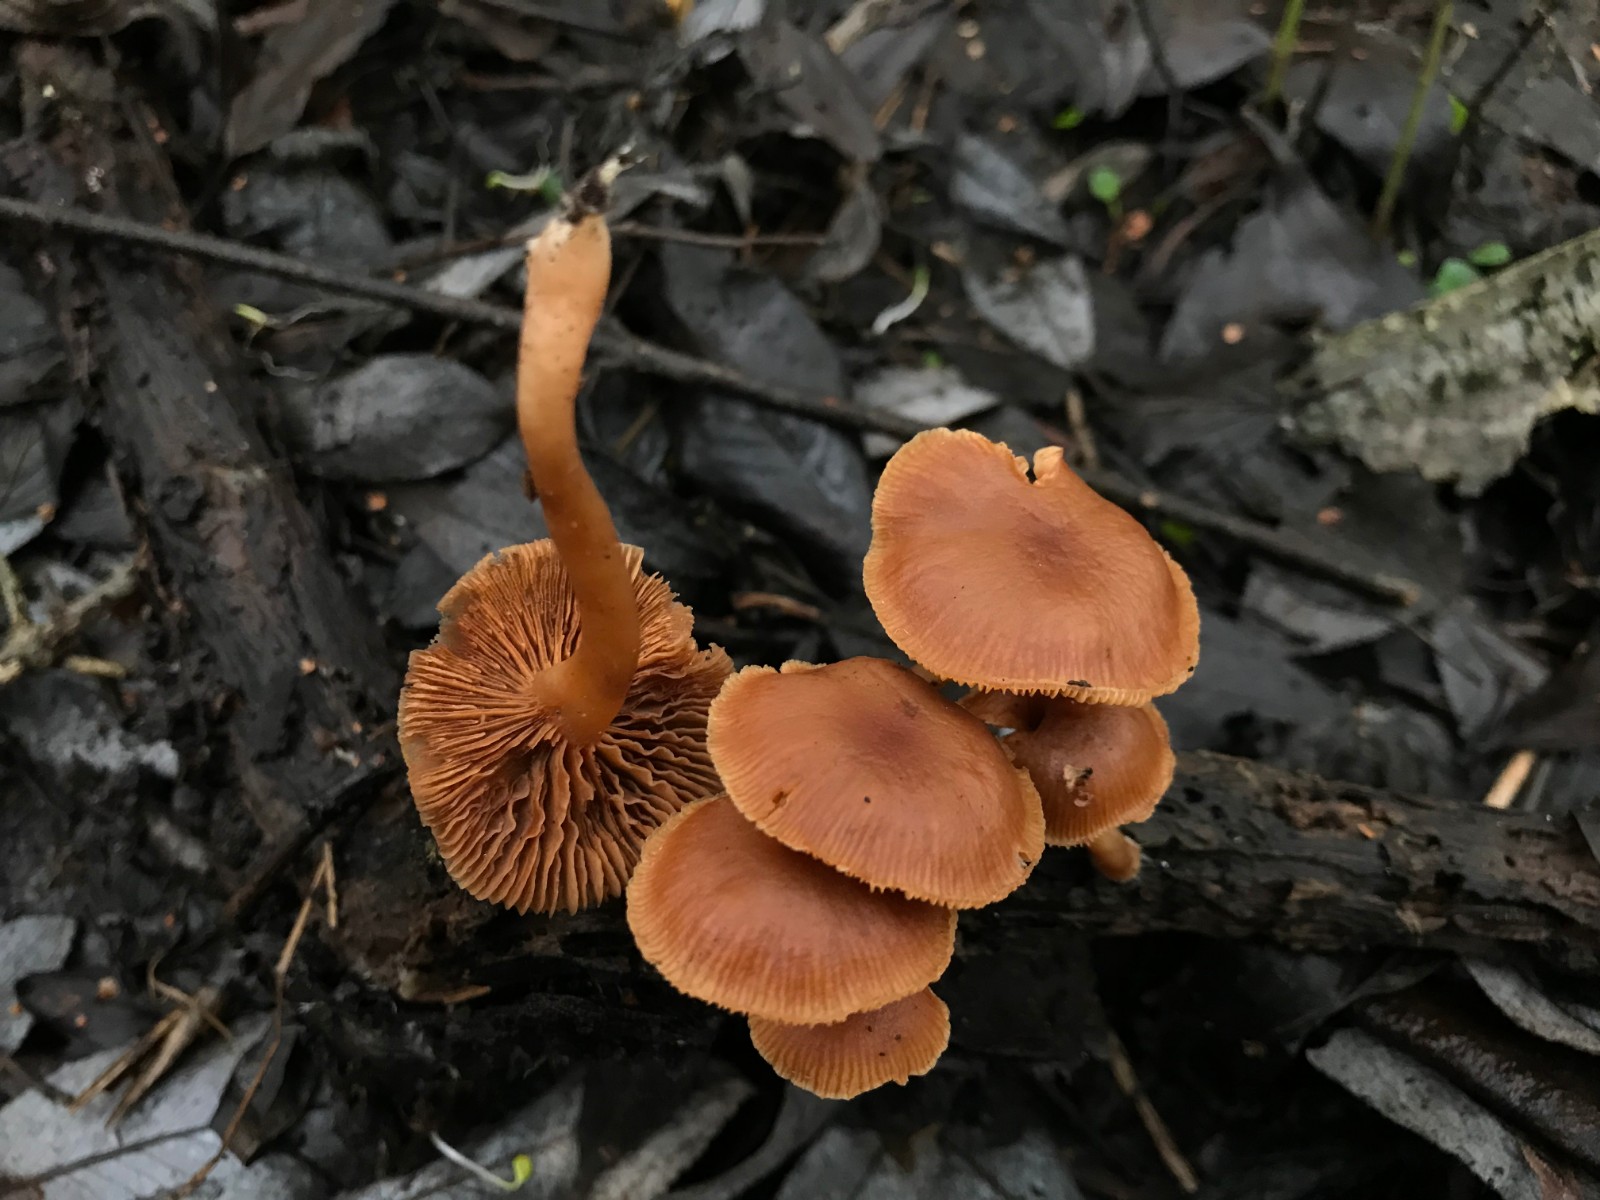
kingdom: Fungi
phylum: Basidiomycota
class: Agaricomycetes
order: Agaricales
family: Tubariaceae
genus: Tubaria
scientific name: Tubaria furfuracea
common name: kliddet fnughat
